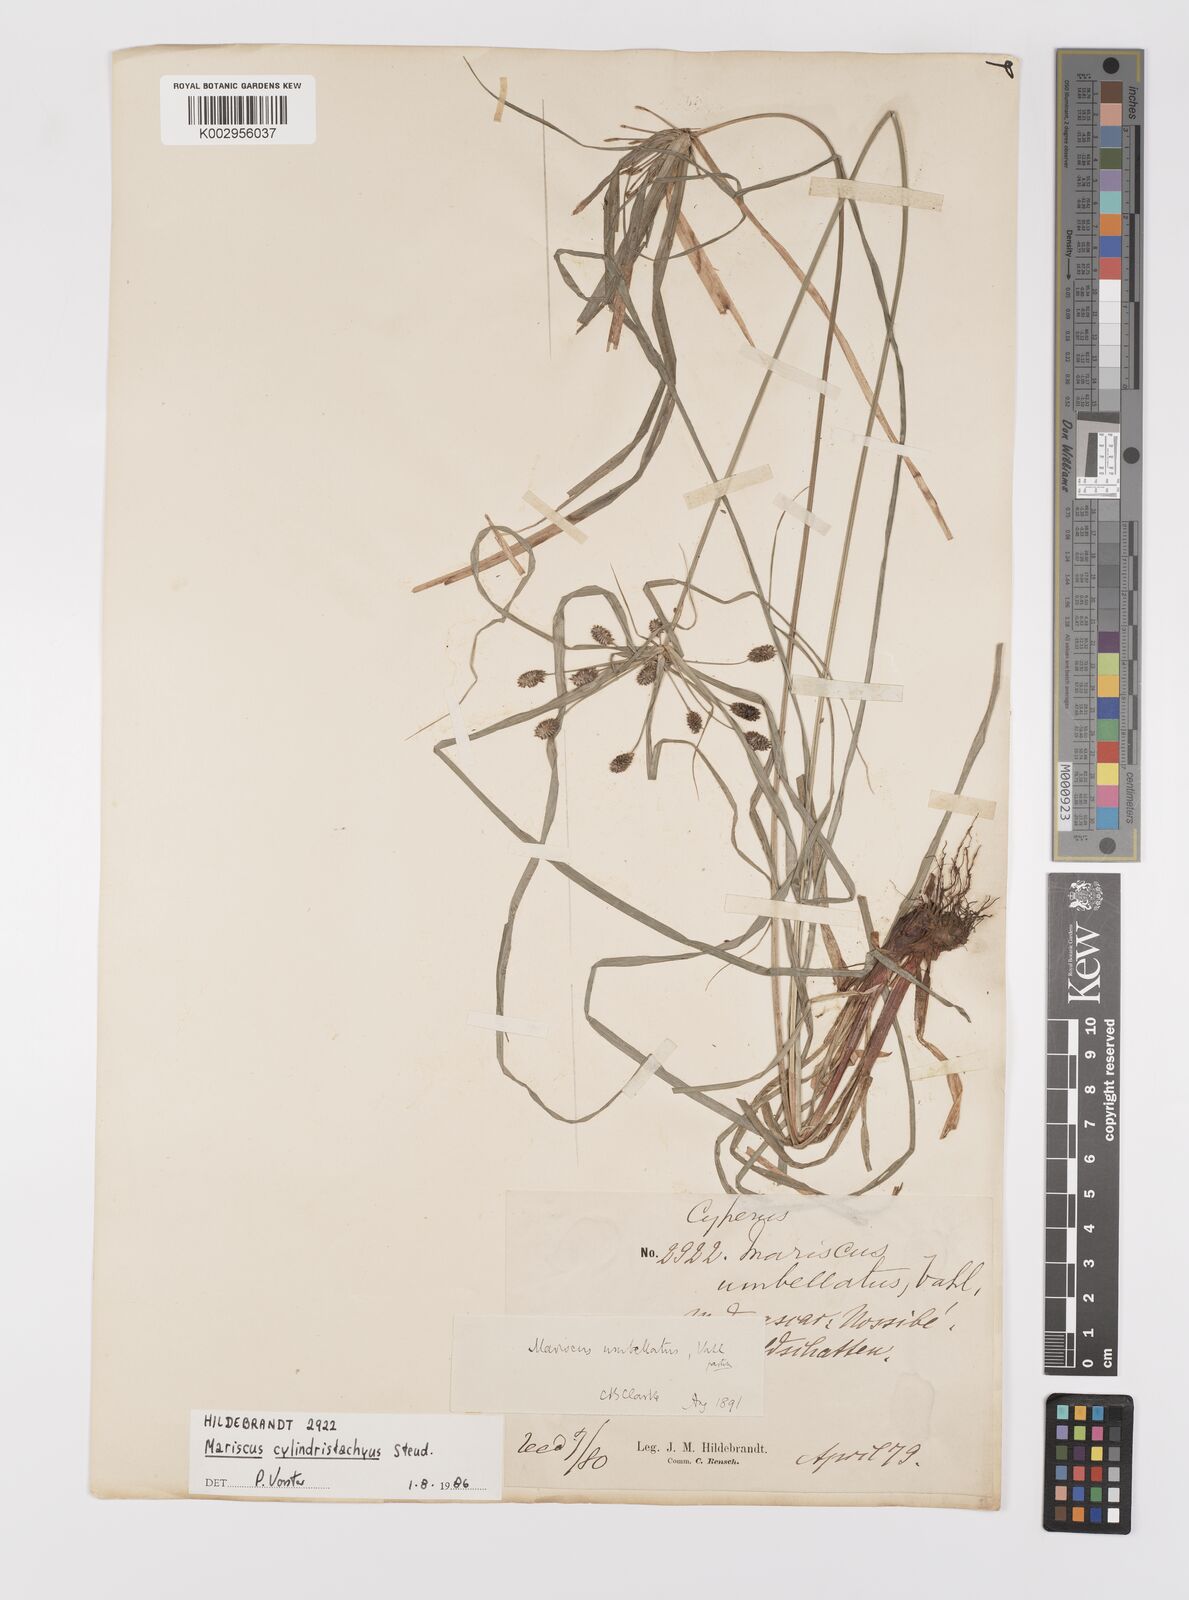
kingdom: Plantae
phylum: Tracheophyta
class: Liliopsida
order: Poales
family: Cyperaceae
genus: Cyperus
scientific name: Cyperus cyperoides
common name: Pacific island flat sedge
